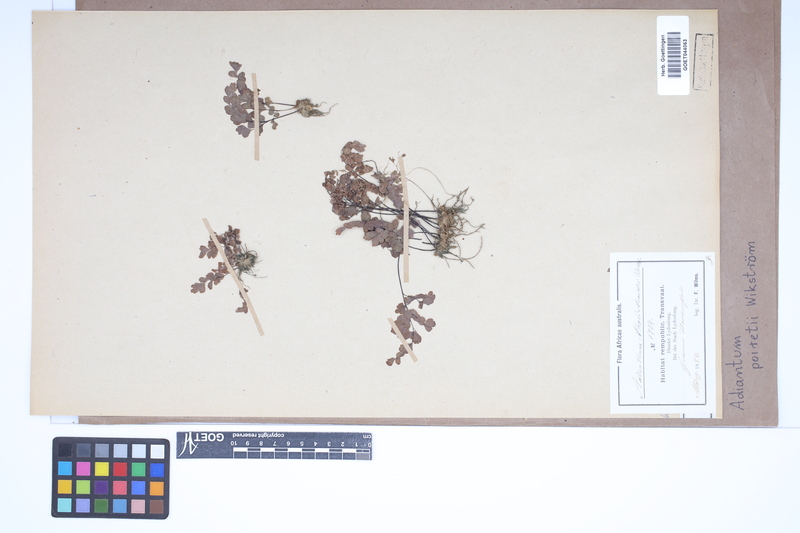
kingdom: Plantae
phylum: Tracheophyta
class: Polypodiopsida
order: Polypodiales
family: Pteridaceae
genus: Adiantum
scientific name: Adiantum poiretii
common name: Mexican maidenhair
